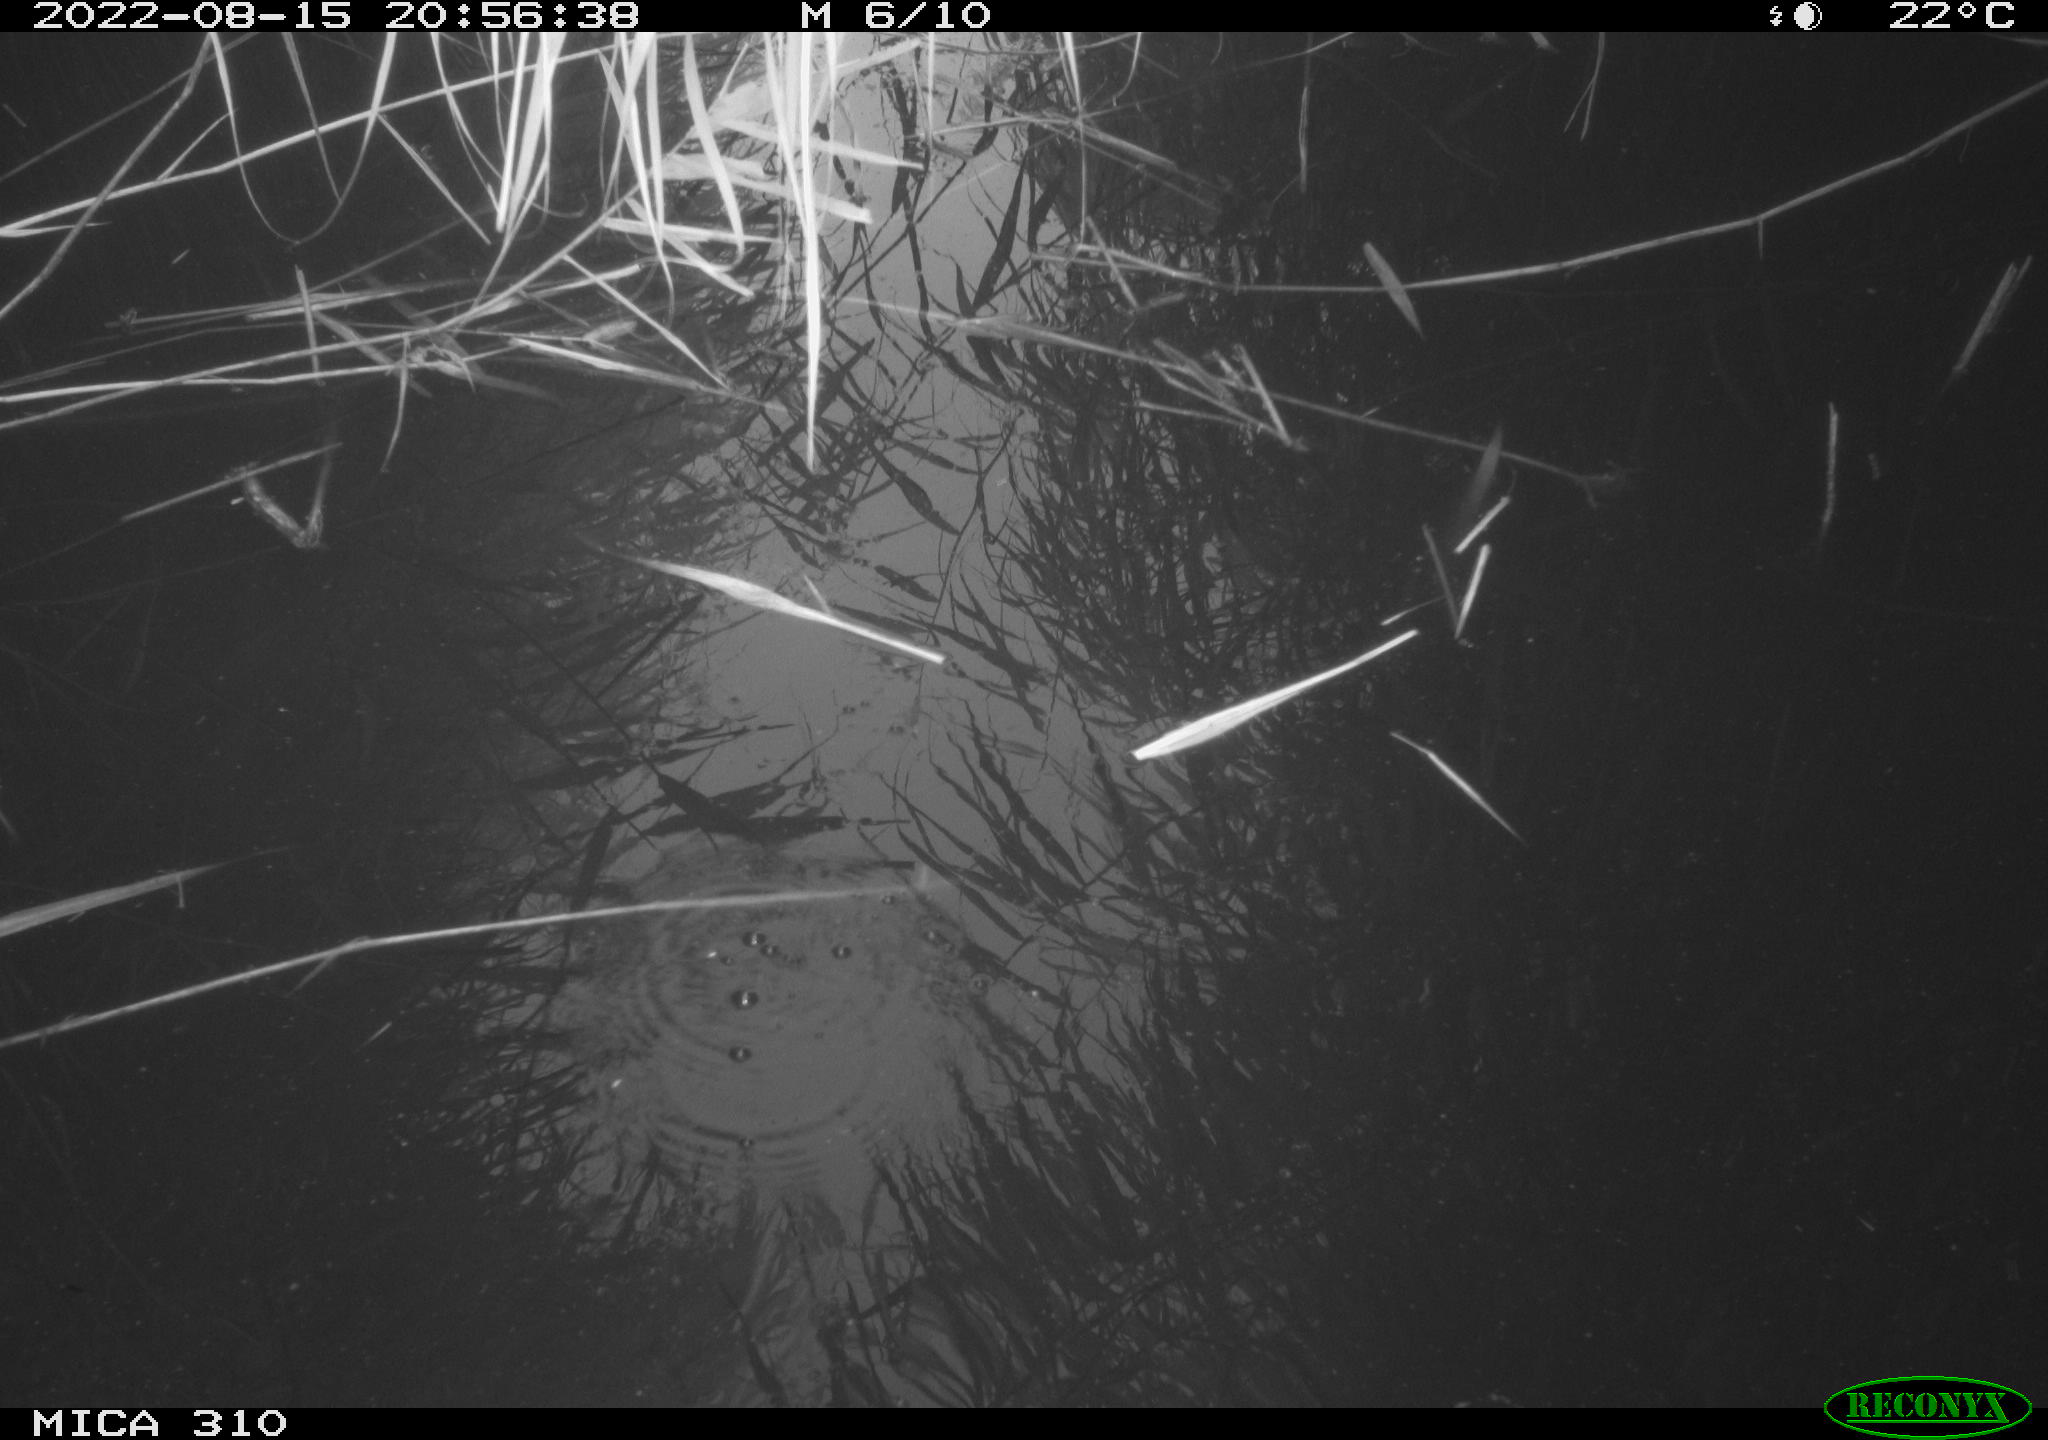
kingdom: Animalia
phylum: Chordata
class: Aves
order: Anseriformes
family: Anatidae
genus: Anas
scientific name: Anas platyrhynchos
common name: Mallard
